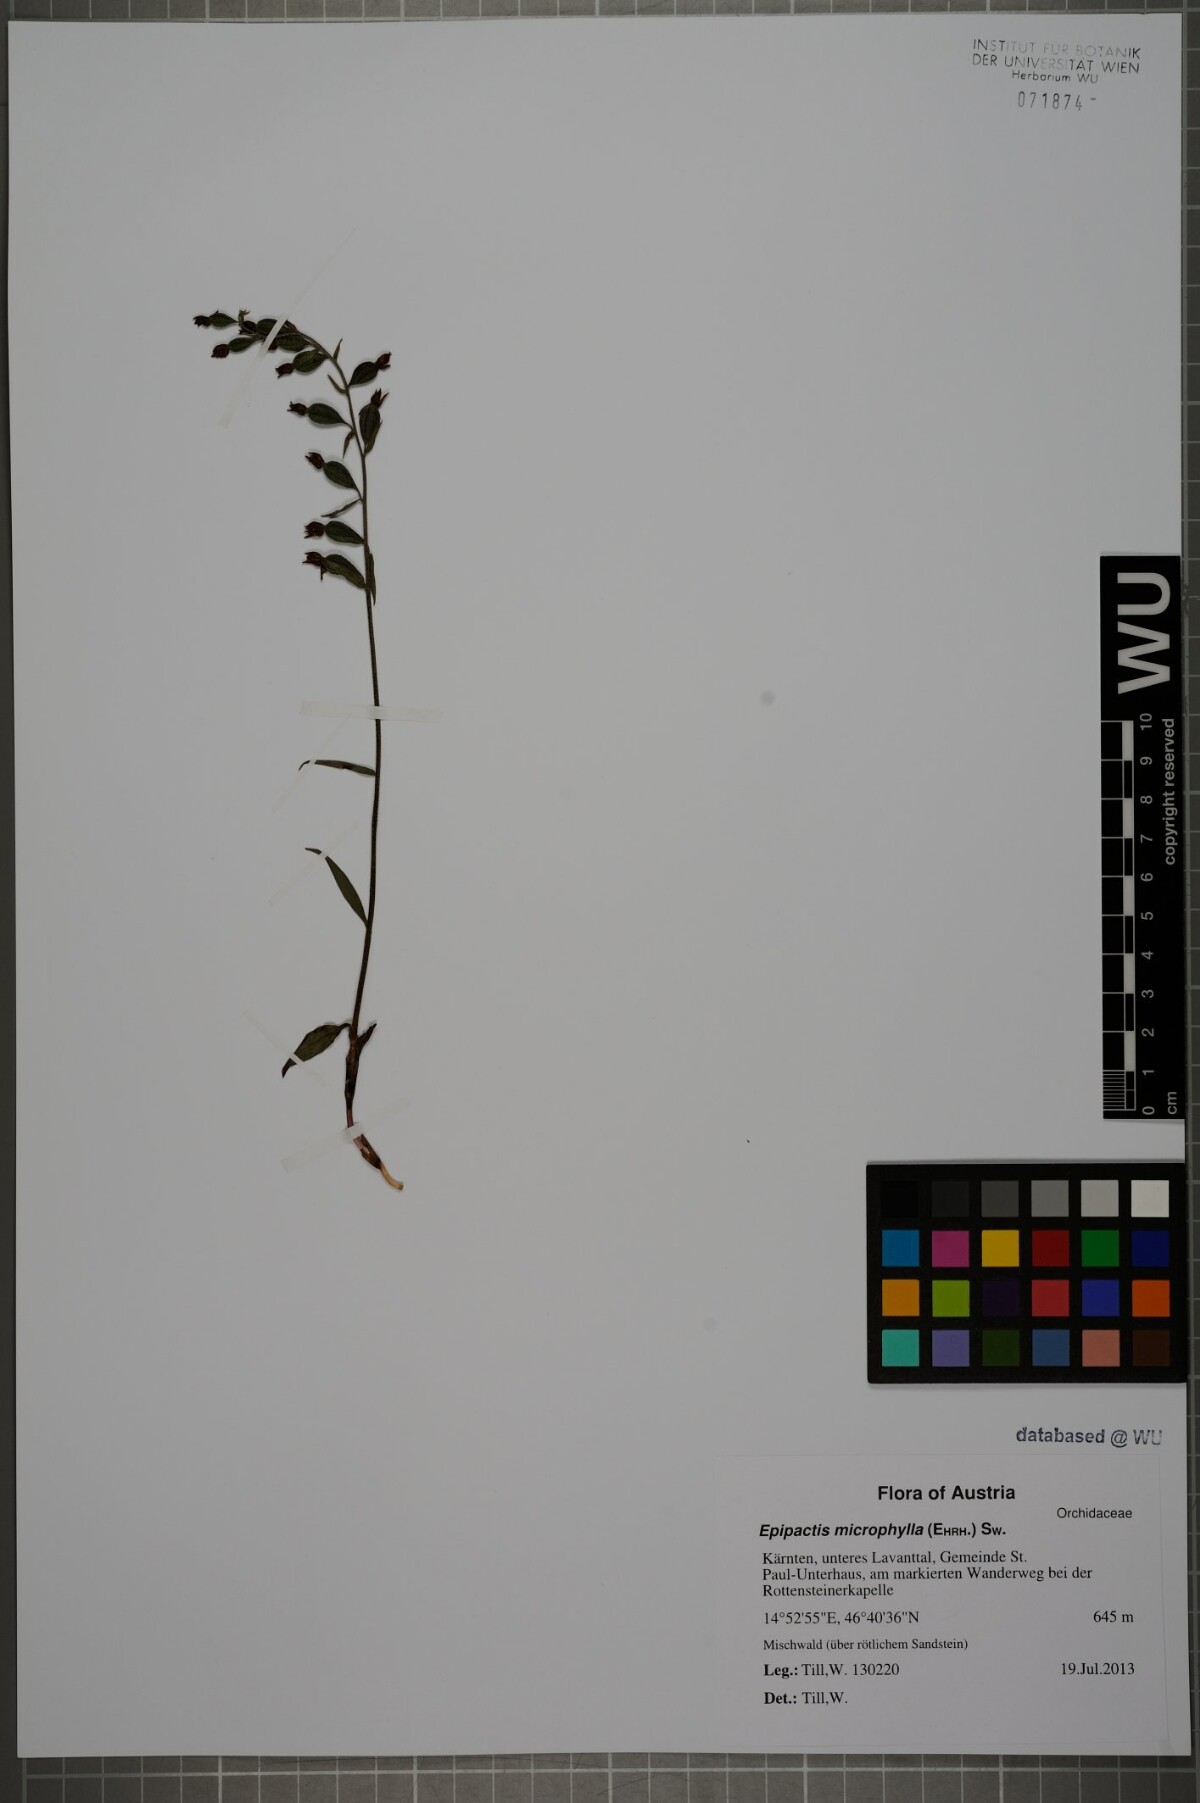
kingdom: Plantae
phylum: Tracheophyta
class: Liliopsida
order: Asparagales
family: Orchidaceae
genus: Epipactis
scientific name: Epipactis microphylla
